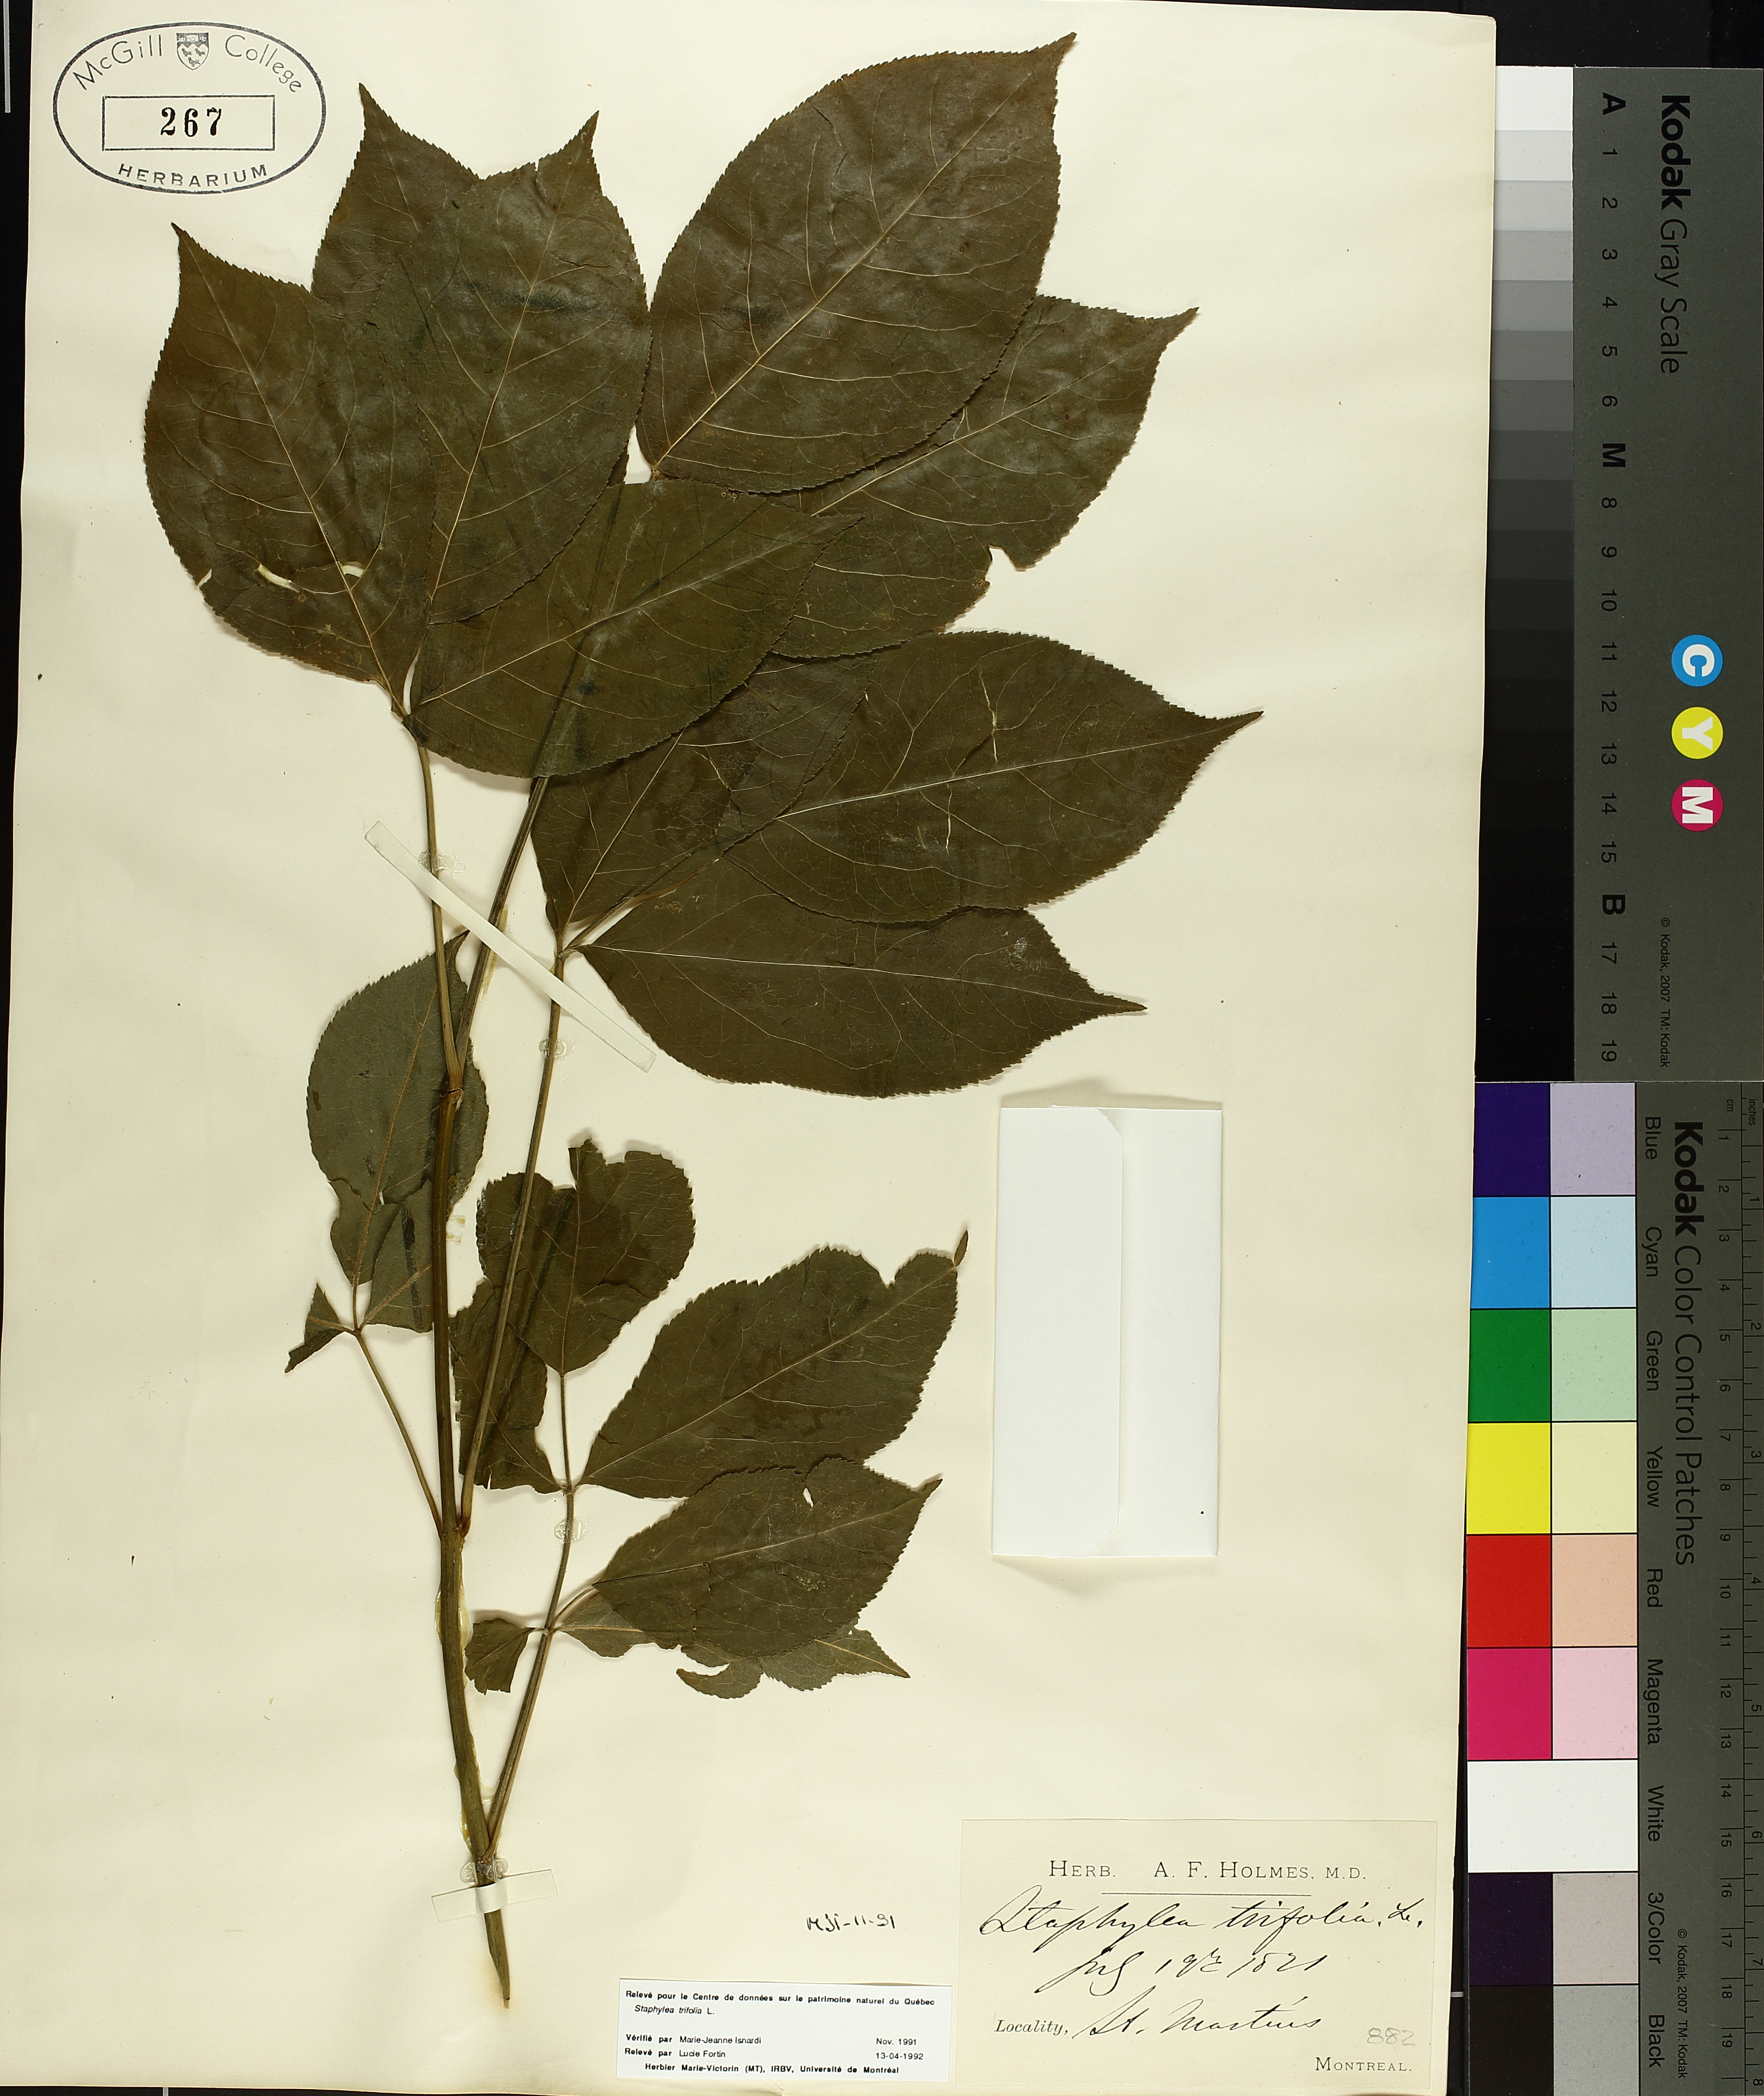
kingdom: Plantae
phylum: Tracheophyta
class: Magnoliopsida
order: Crossosomatales
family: Staphyleaceae
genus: Staphylea
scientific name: Staphylea trifolia
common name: American bladdernut
